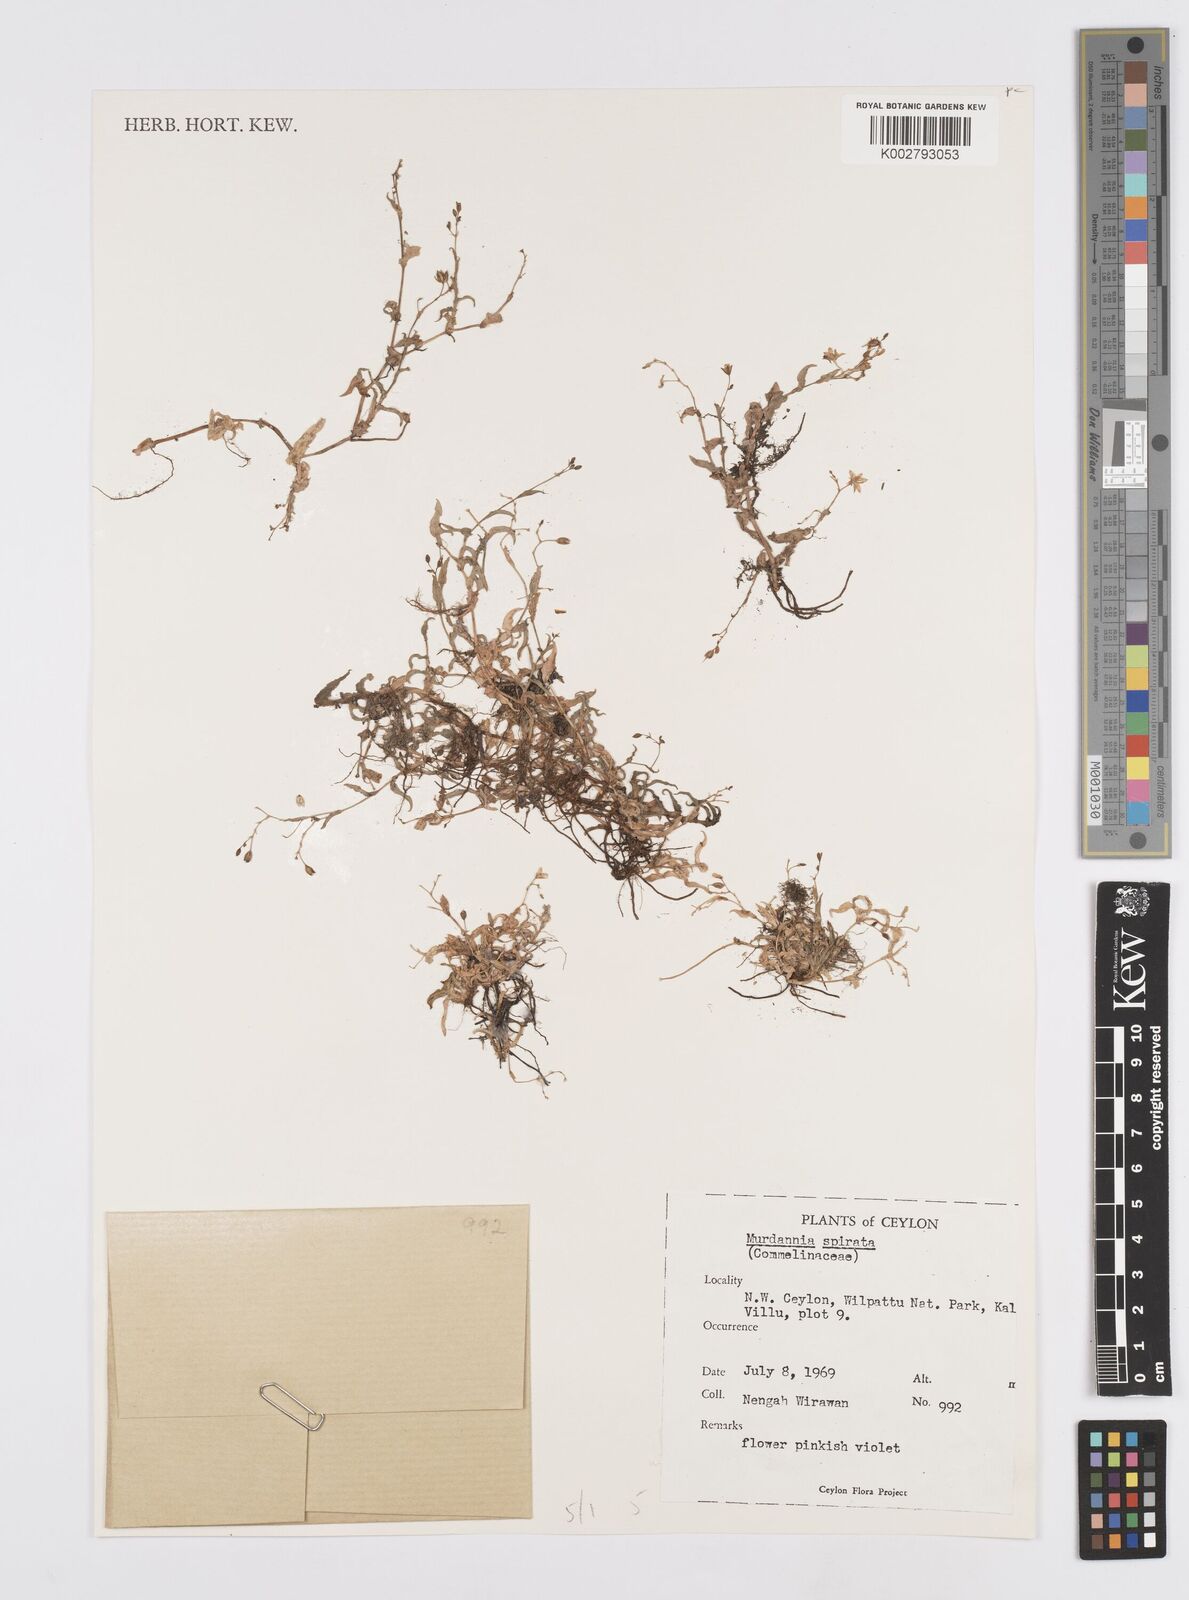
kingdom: Plantae
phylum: Tracheophyta
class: Liliopsida
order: Commelinales
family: Commelinaceae
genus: Murdannia
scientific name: Murdannia spirata
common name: Asiatic dewflower
